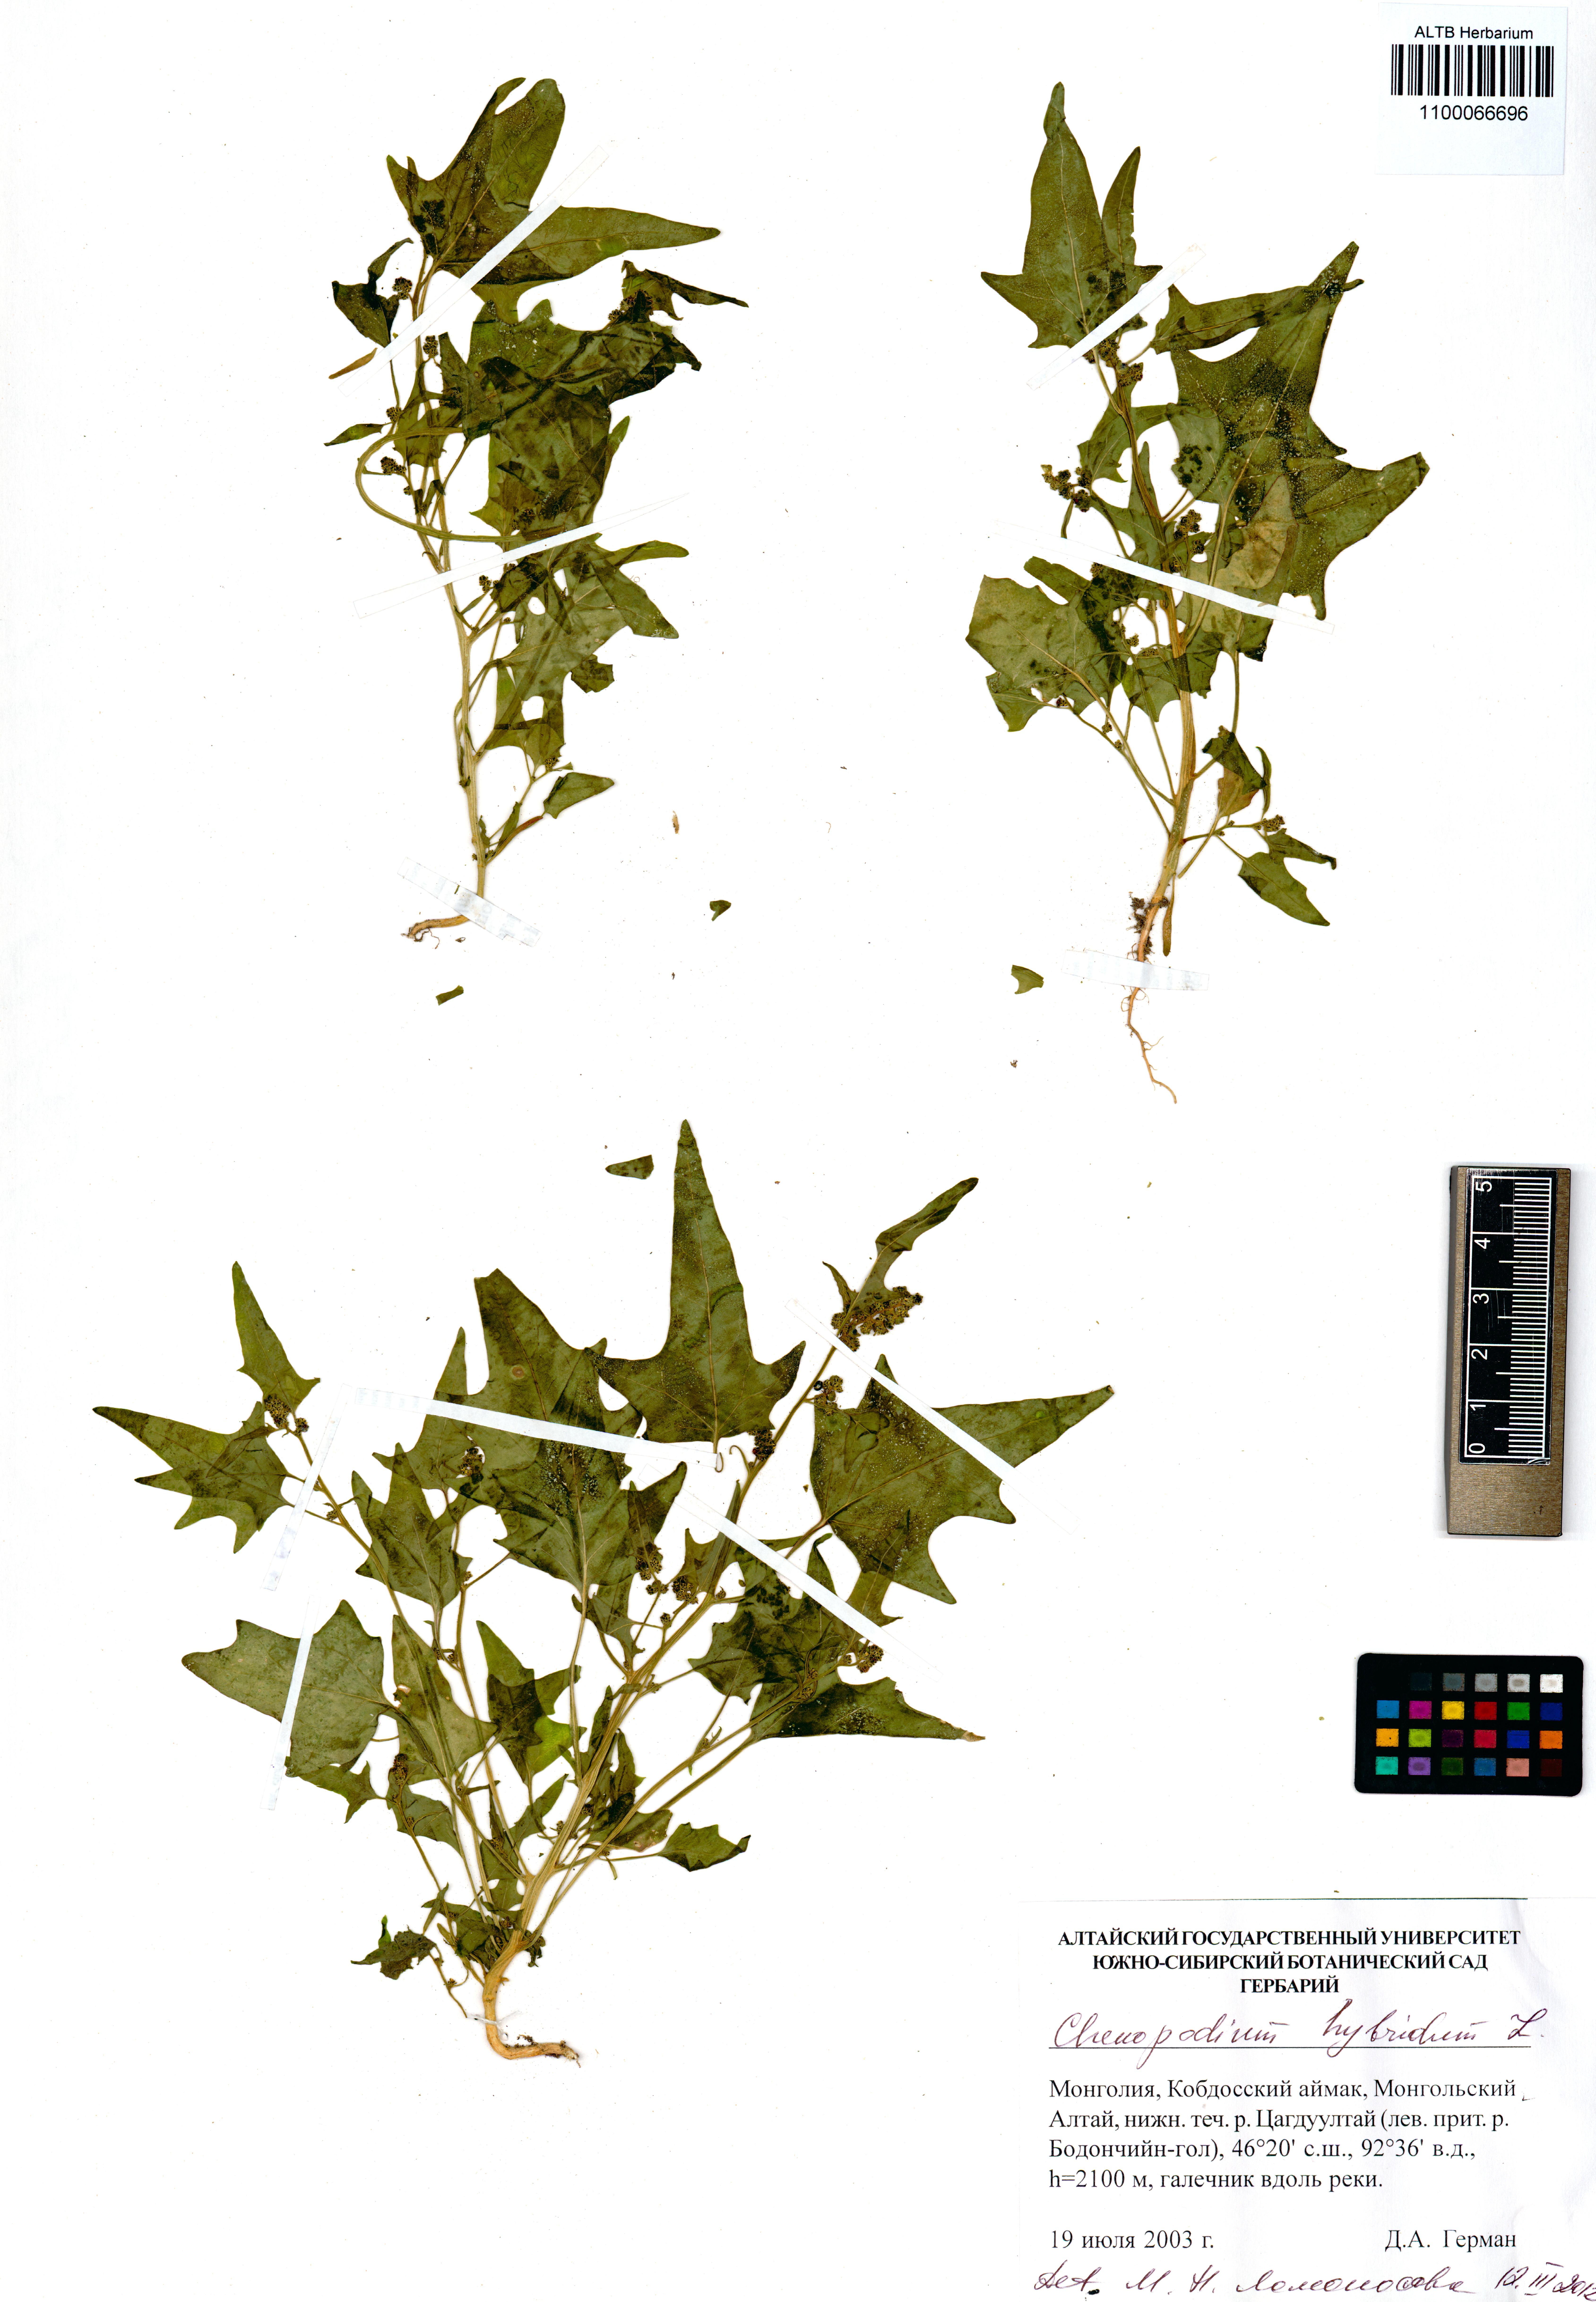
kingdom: Plantae
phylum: Tracheophyta
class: Magnoliopsida
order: Caryophyllales
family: Amaranthaceae
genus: Chenopodiastrum
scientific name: Chenopodiastrum hybridum
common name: Mapleleaf goosefoot
